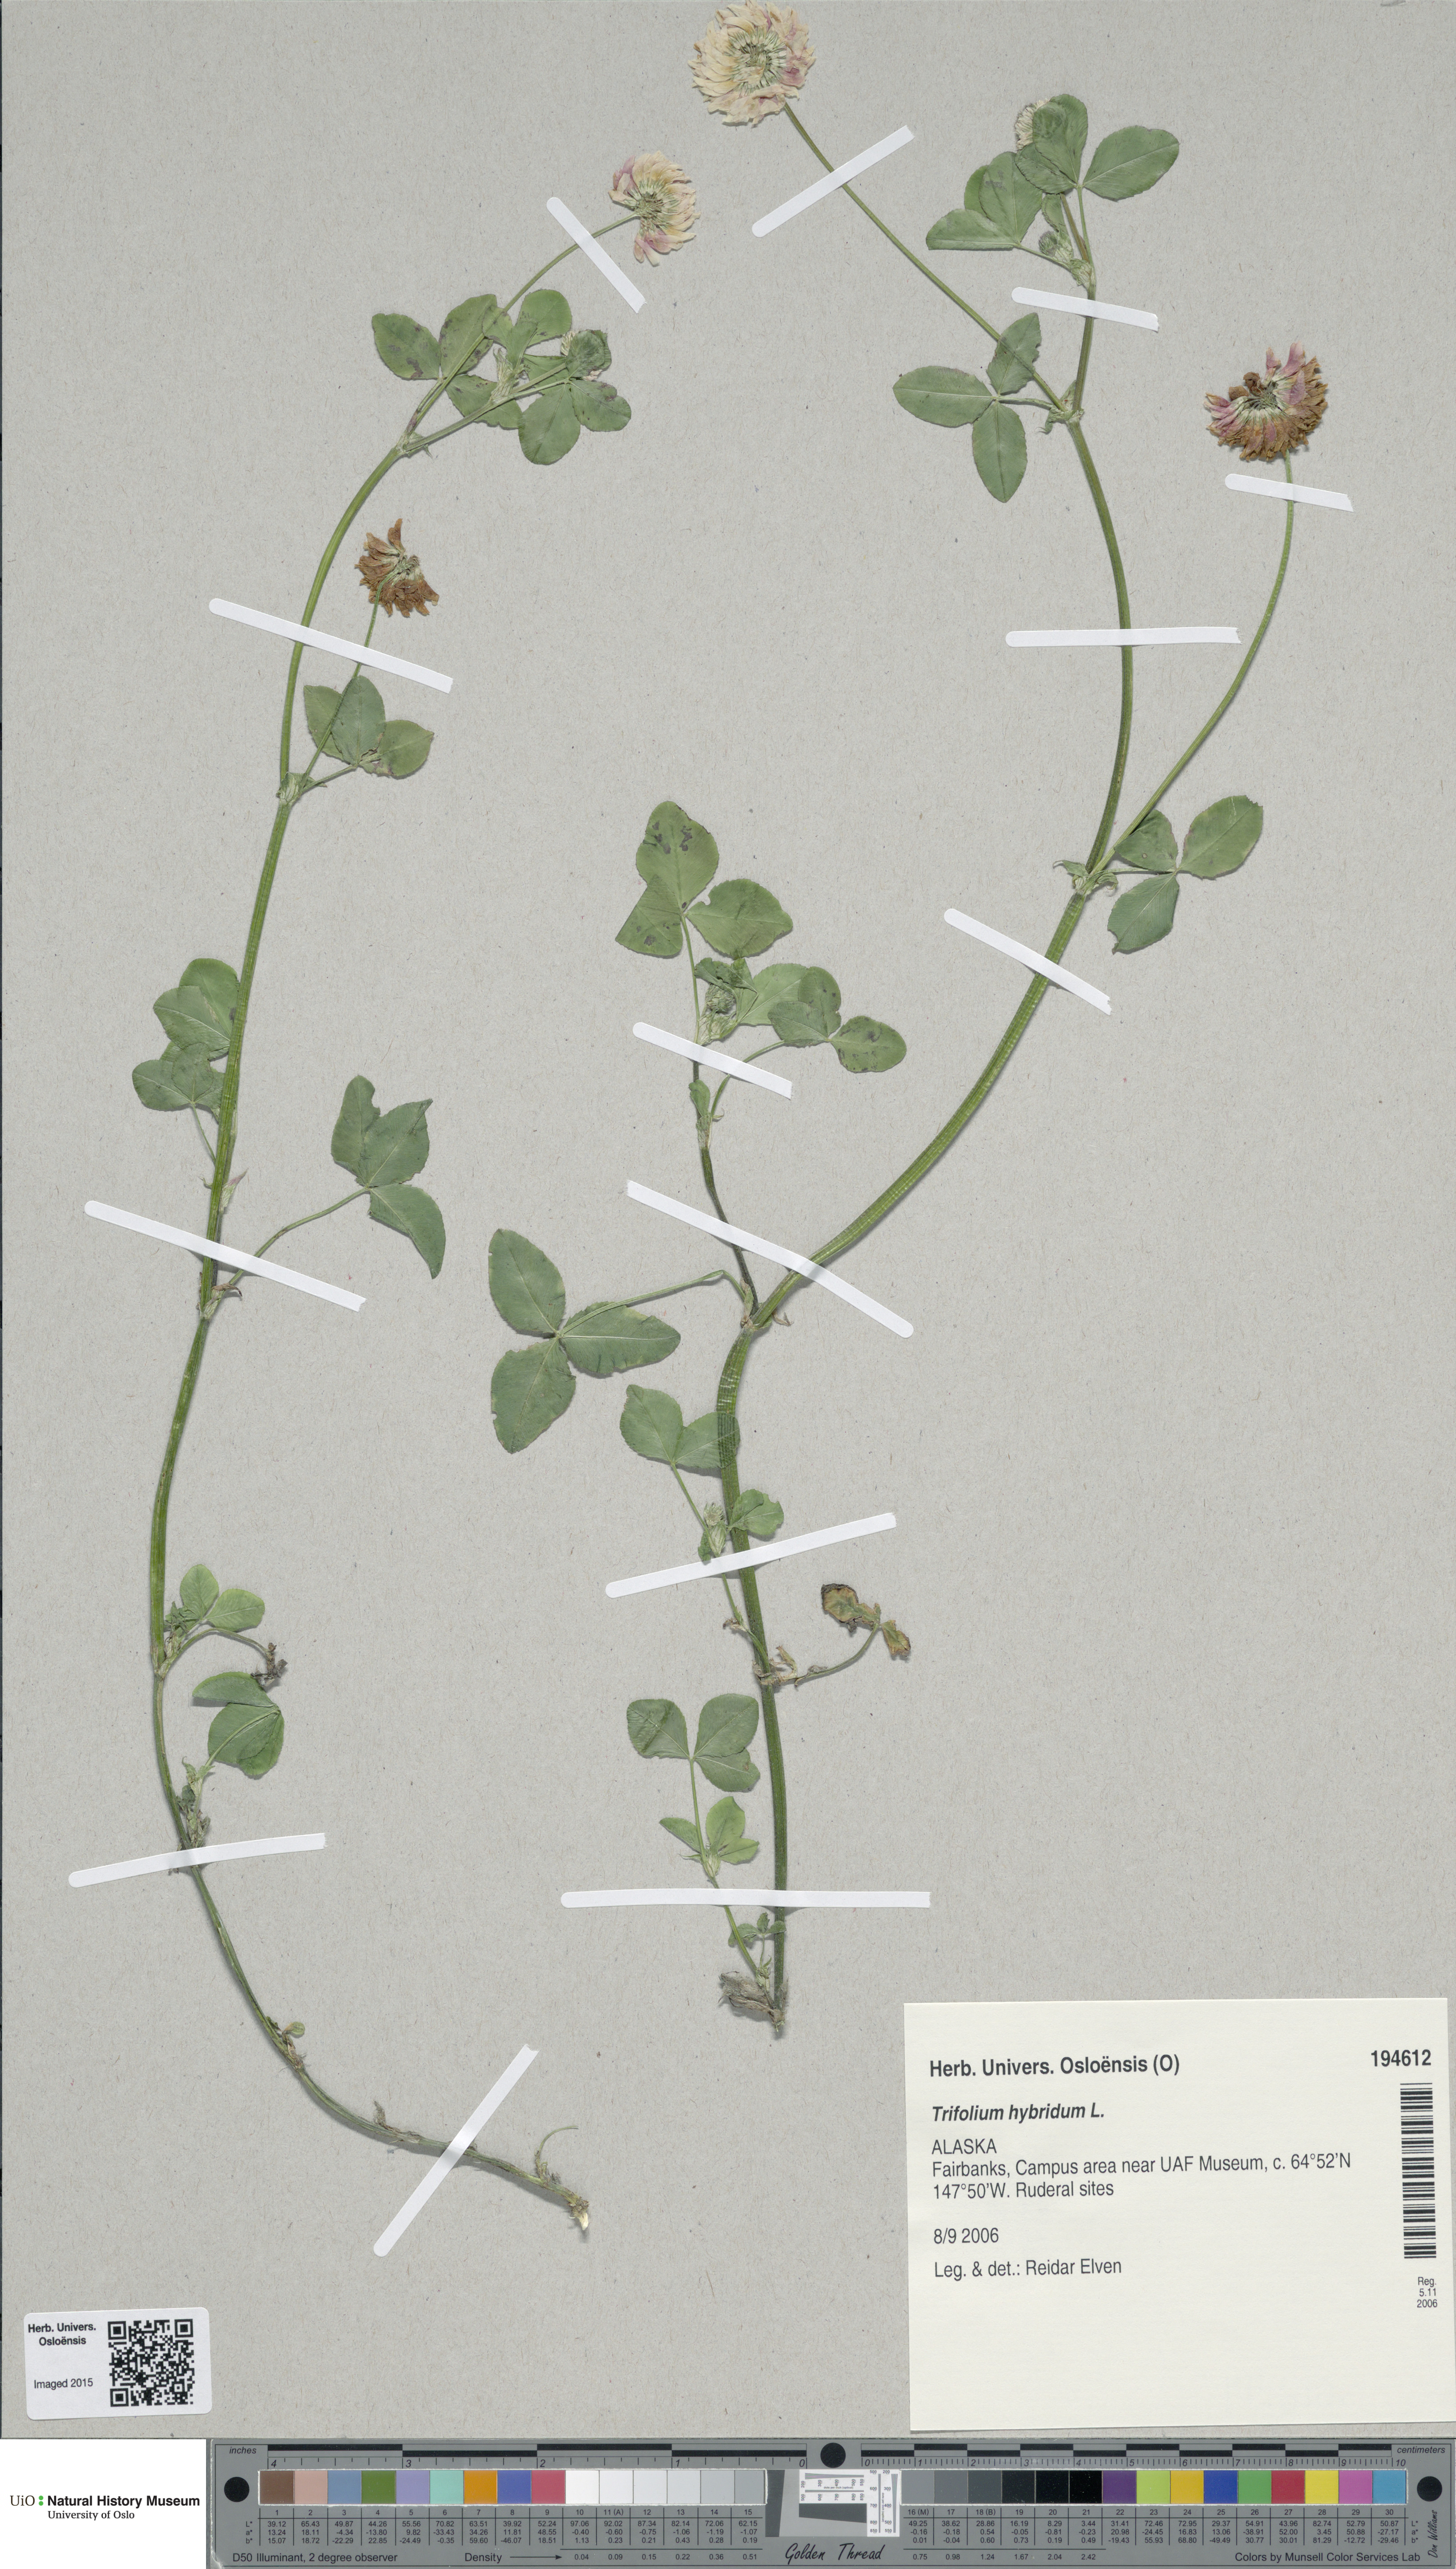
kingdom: Plantae
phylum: Tracheophyta
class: Magnoliopsida
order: Fabales
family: Fabaceae
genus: Trifolium
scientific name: Trifolium hybridum
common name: Alsike clover
